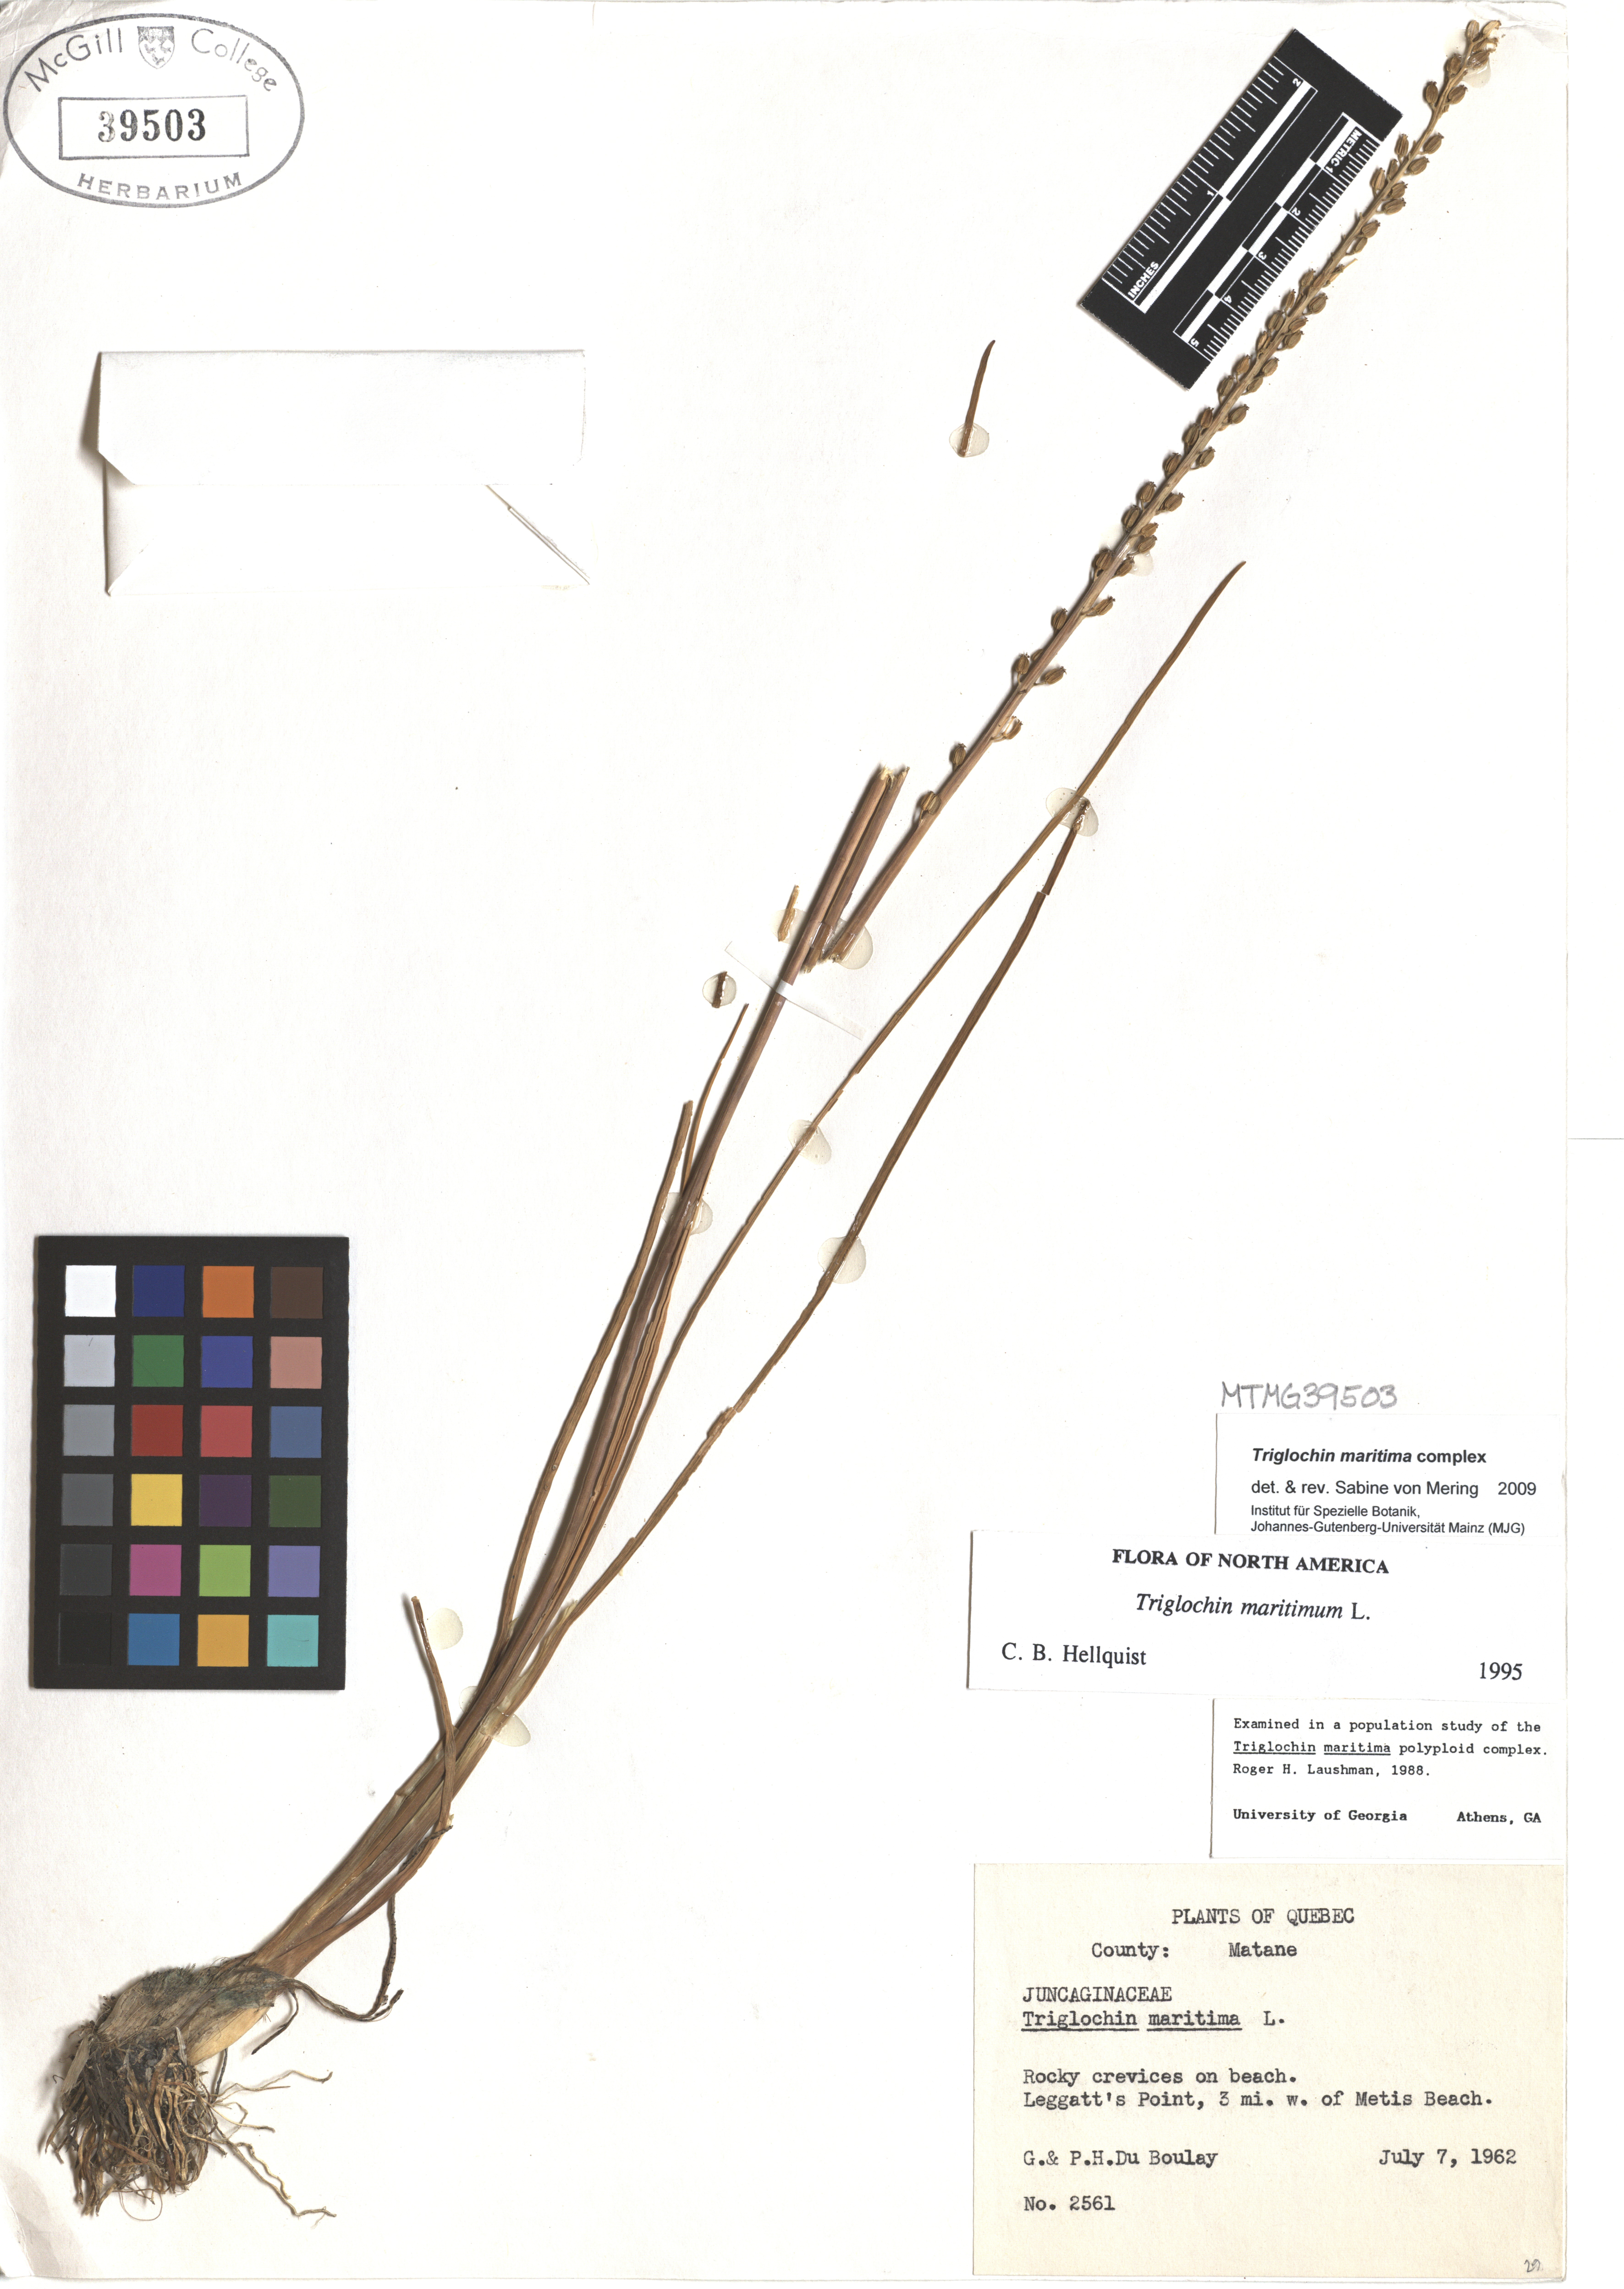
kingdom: Plantae
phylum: Tracheophyta
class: Liliopsida
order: Alismatales
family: Juncaginaceae
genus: Triglochin
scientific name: Triglochin maritima
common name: Sea arrowgrass
